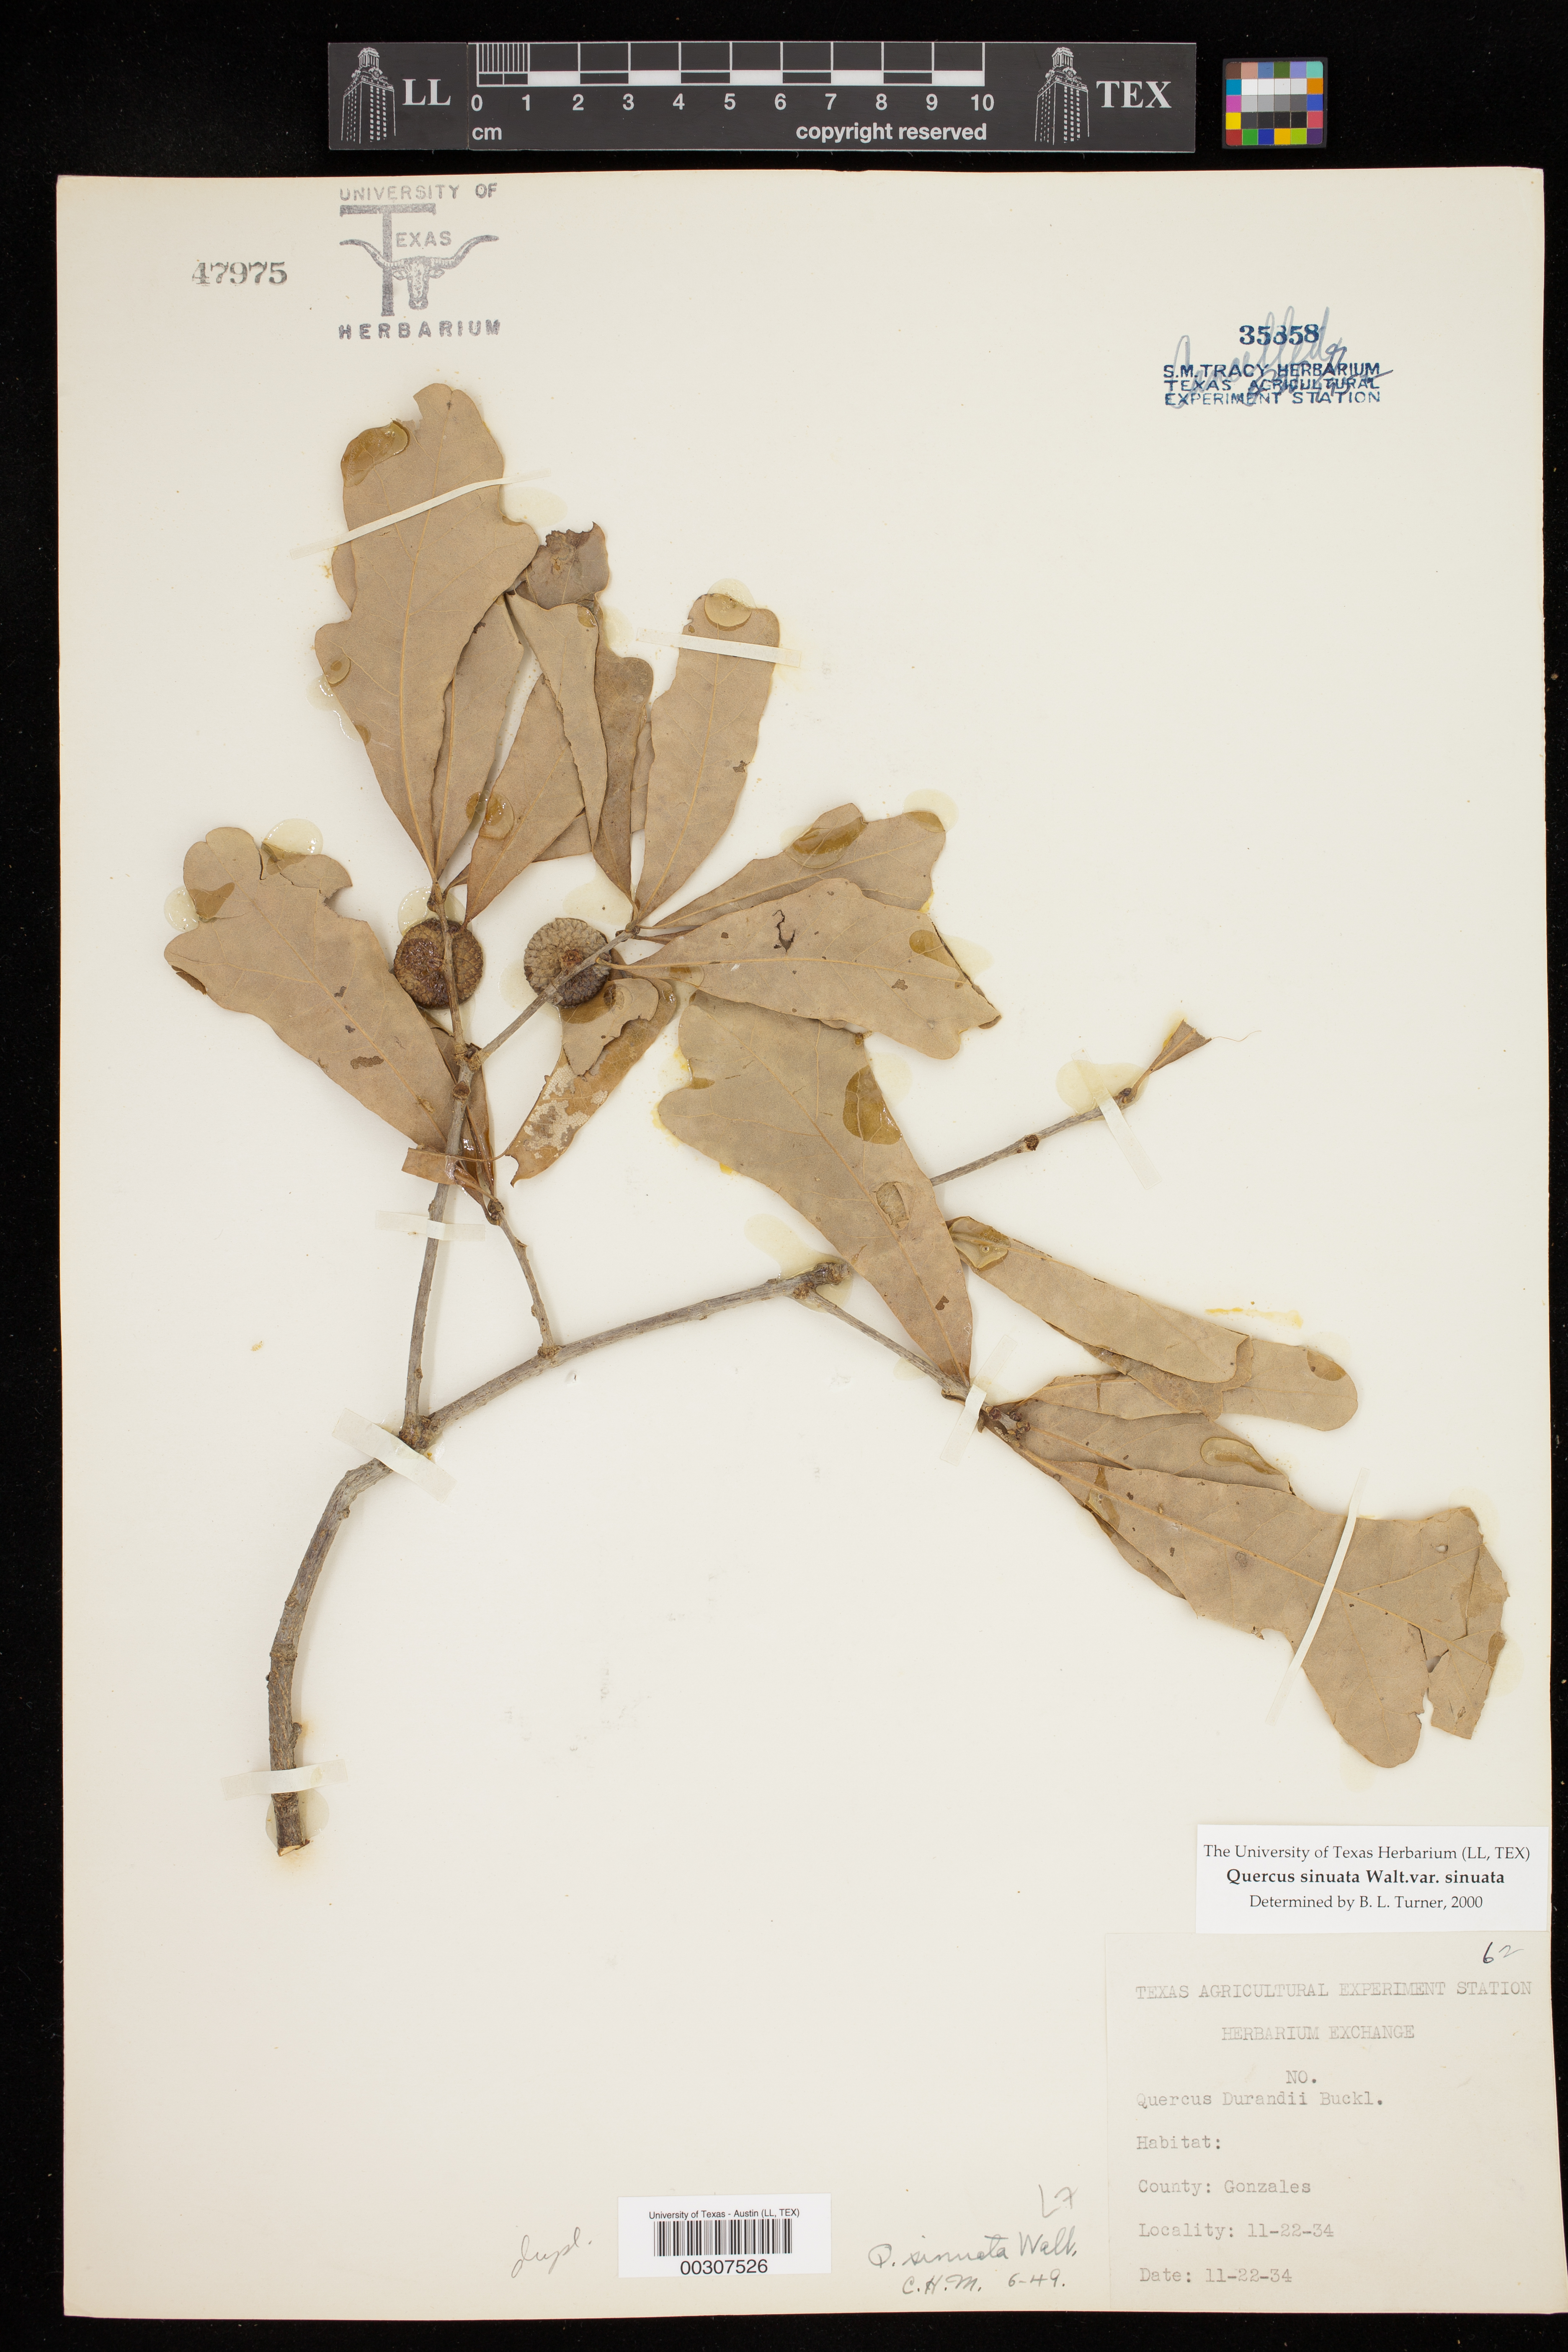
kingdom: Plantae
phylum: Tracheophyta
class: Magnoliopsida
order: Fagales
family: Fagaceae
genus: Quercus
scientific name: Quercus sinuata
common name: Durand oak
